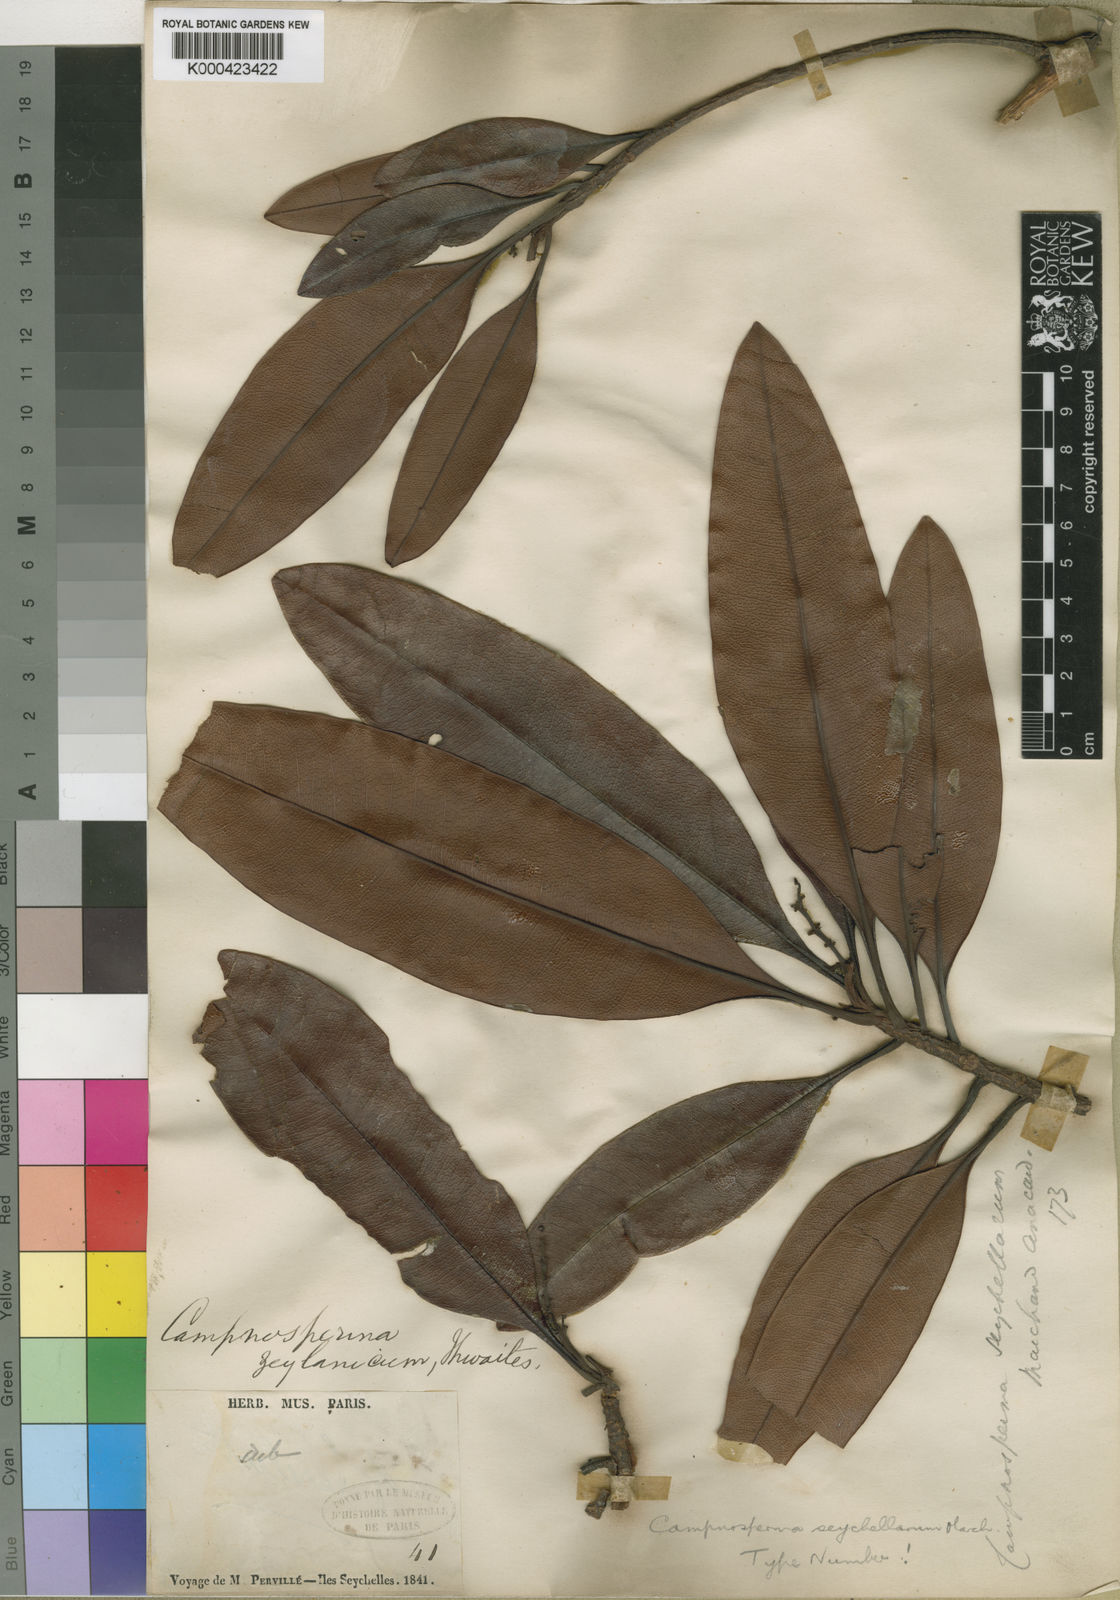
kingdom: Plantae
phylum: Tracheophyta
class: Magnoliopsida
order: Sapindales
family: Anacardiaceae
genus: Campnosperma
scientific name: Campnosperma seychellarum
